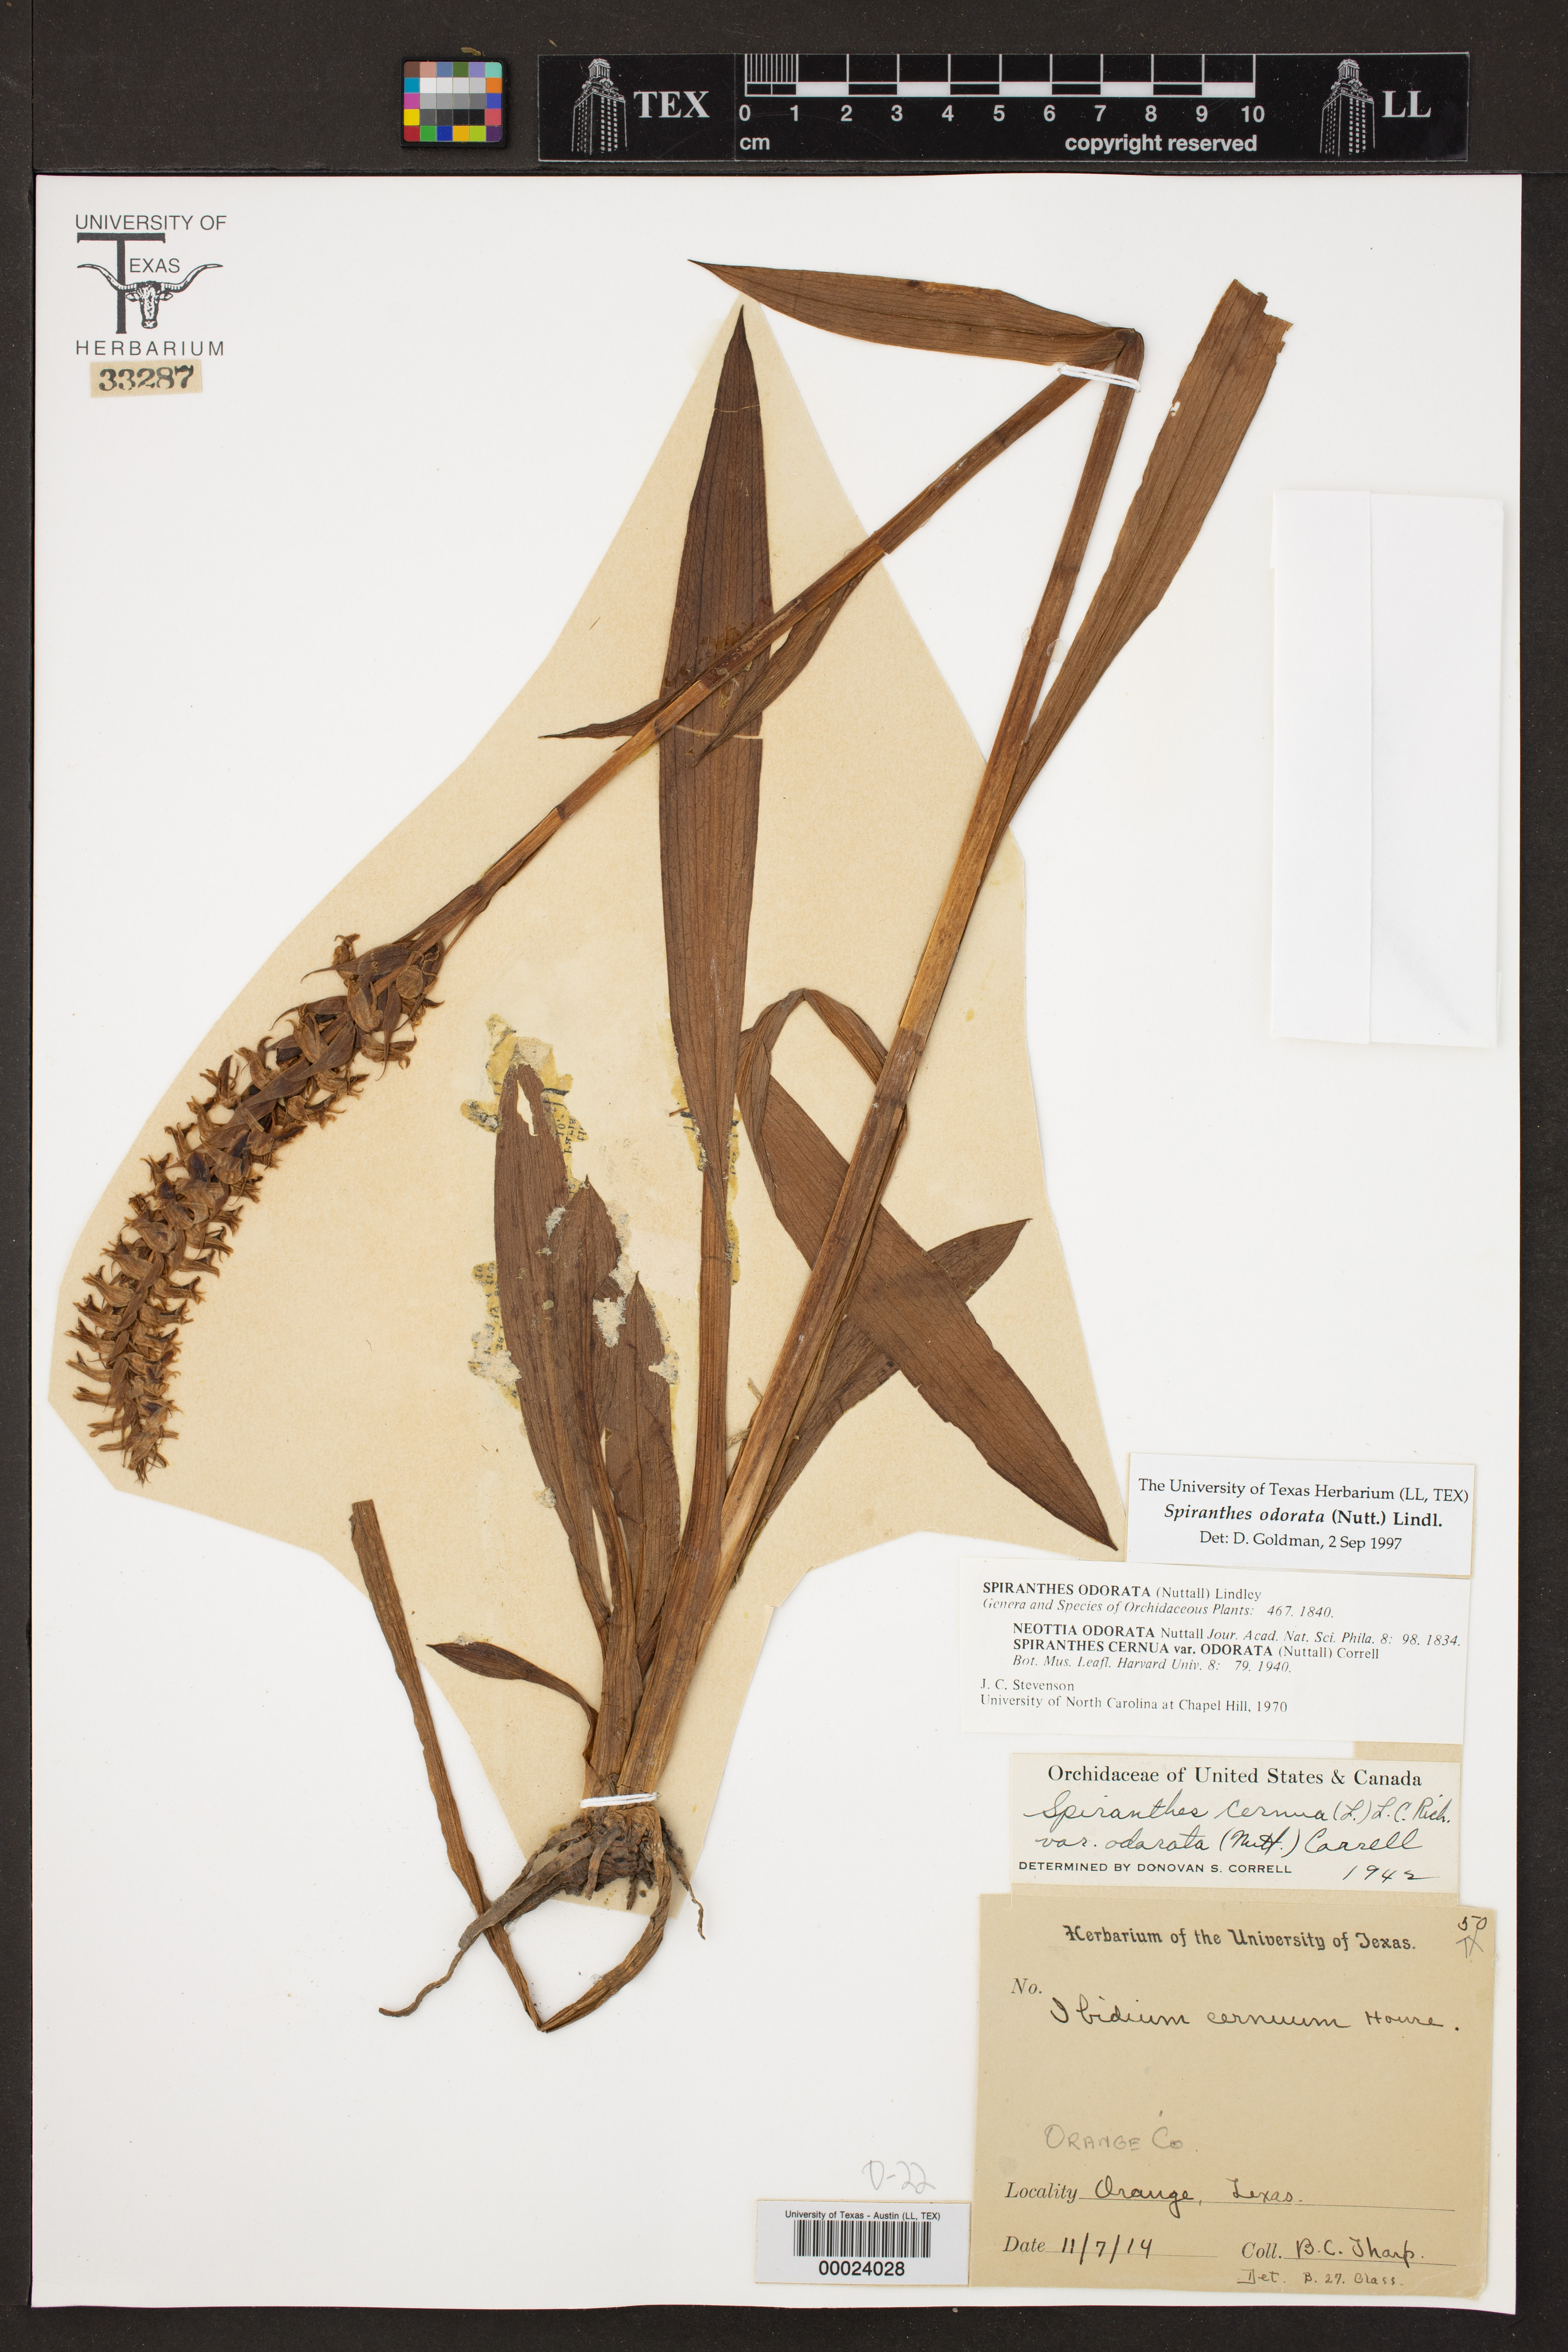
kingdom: Plantae
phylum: Tracheophyta
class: Liliopsida
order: Asparagales
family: Orchidaceae
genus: Spiranthes
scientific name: Spiranthes odorata
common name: Marsh ladies'-tresses
